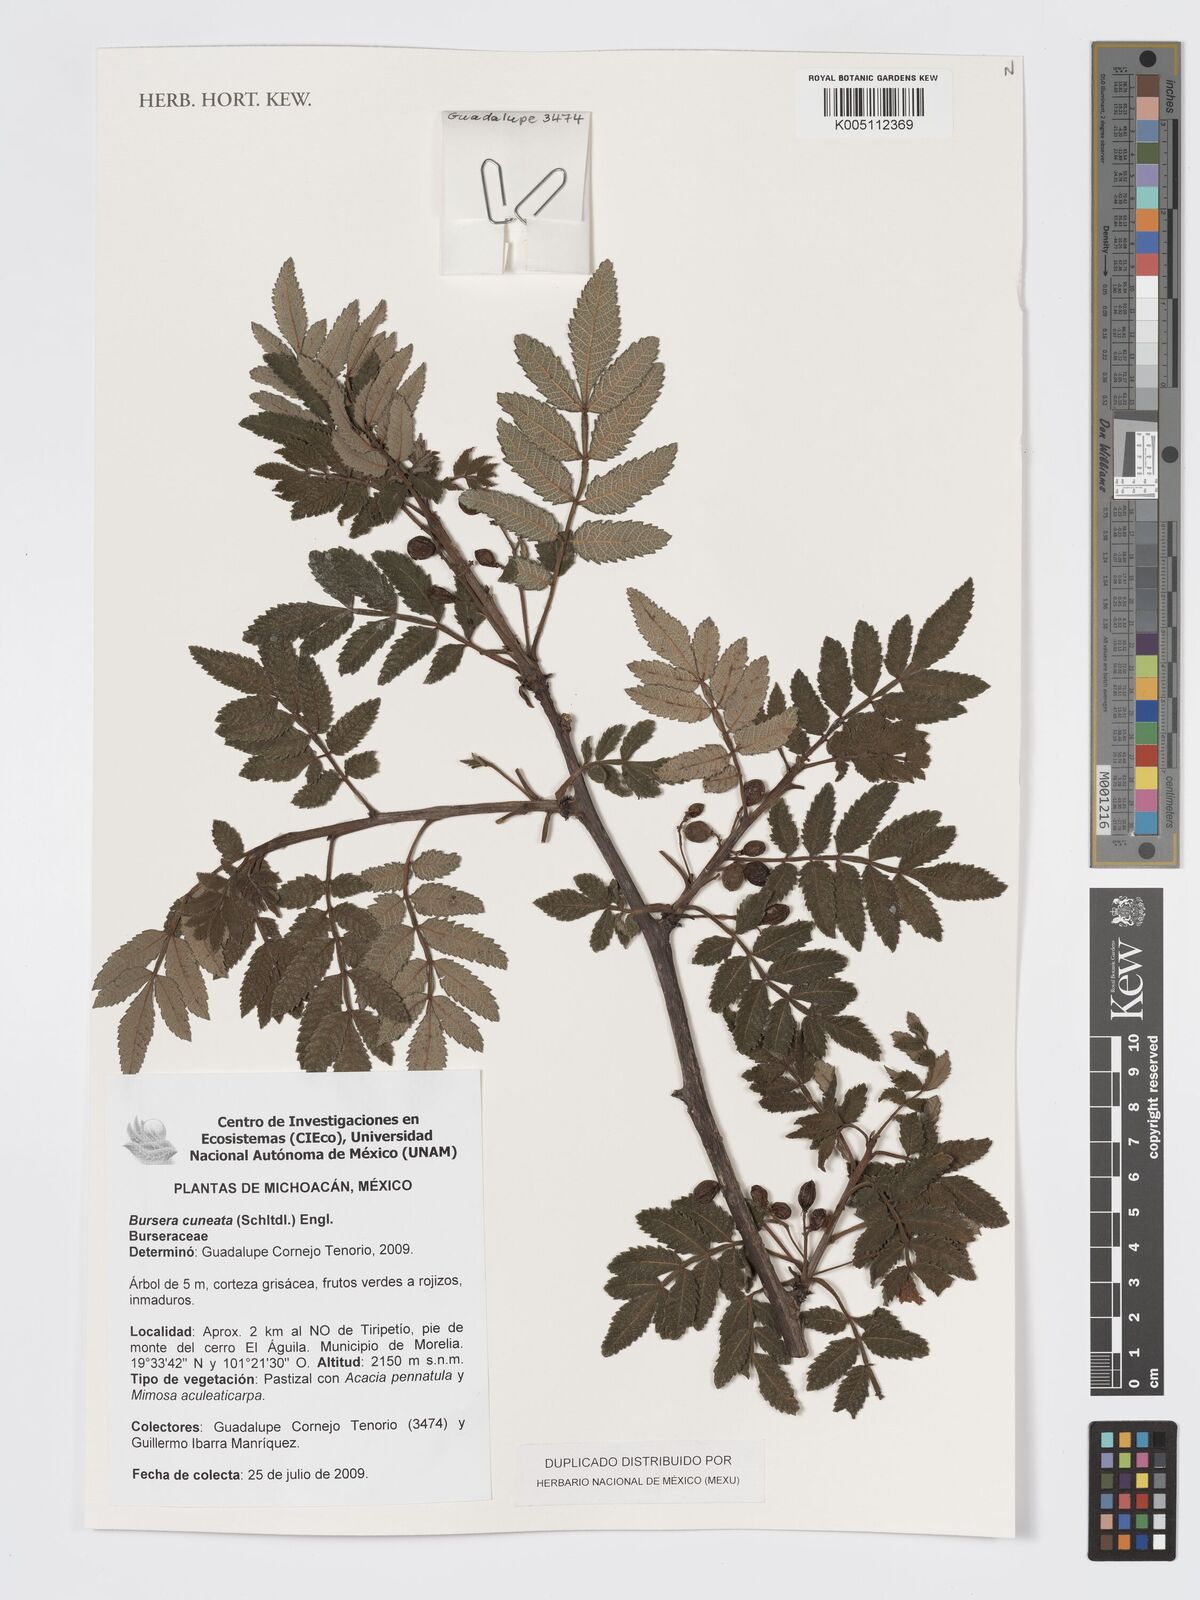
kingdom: Plantae
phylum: Tracheophyta
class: Magnoliopsida
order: Sapindales
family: Burseraceae
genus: Bursera
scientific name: Bursera cuneata
